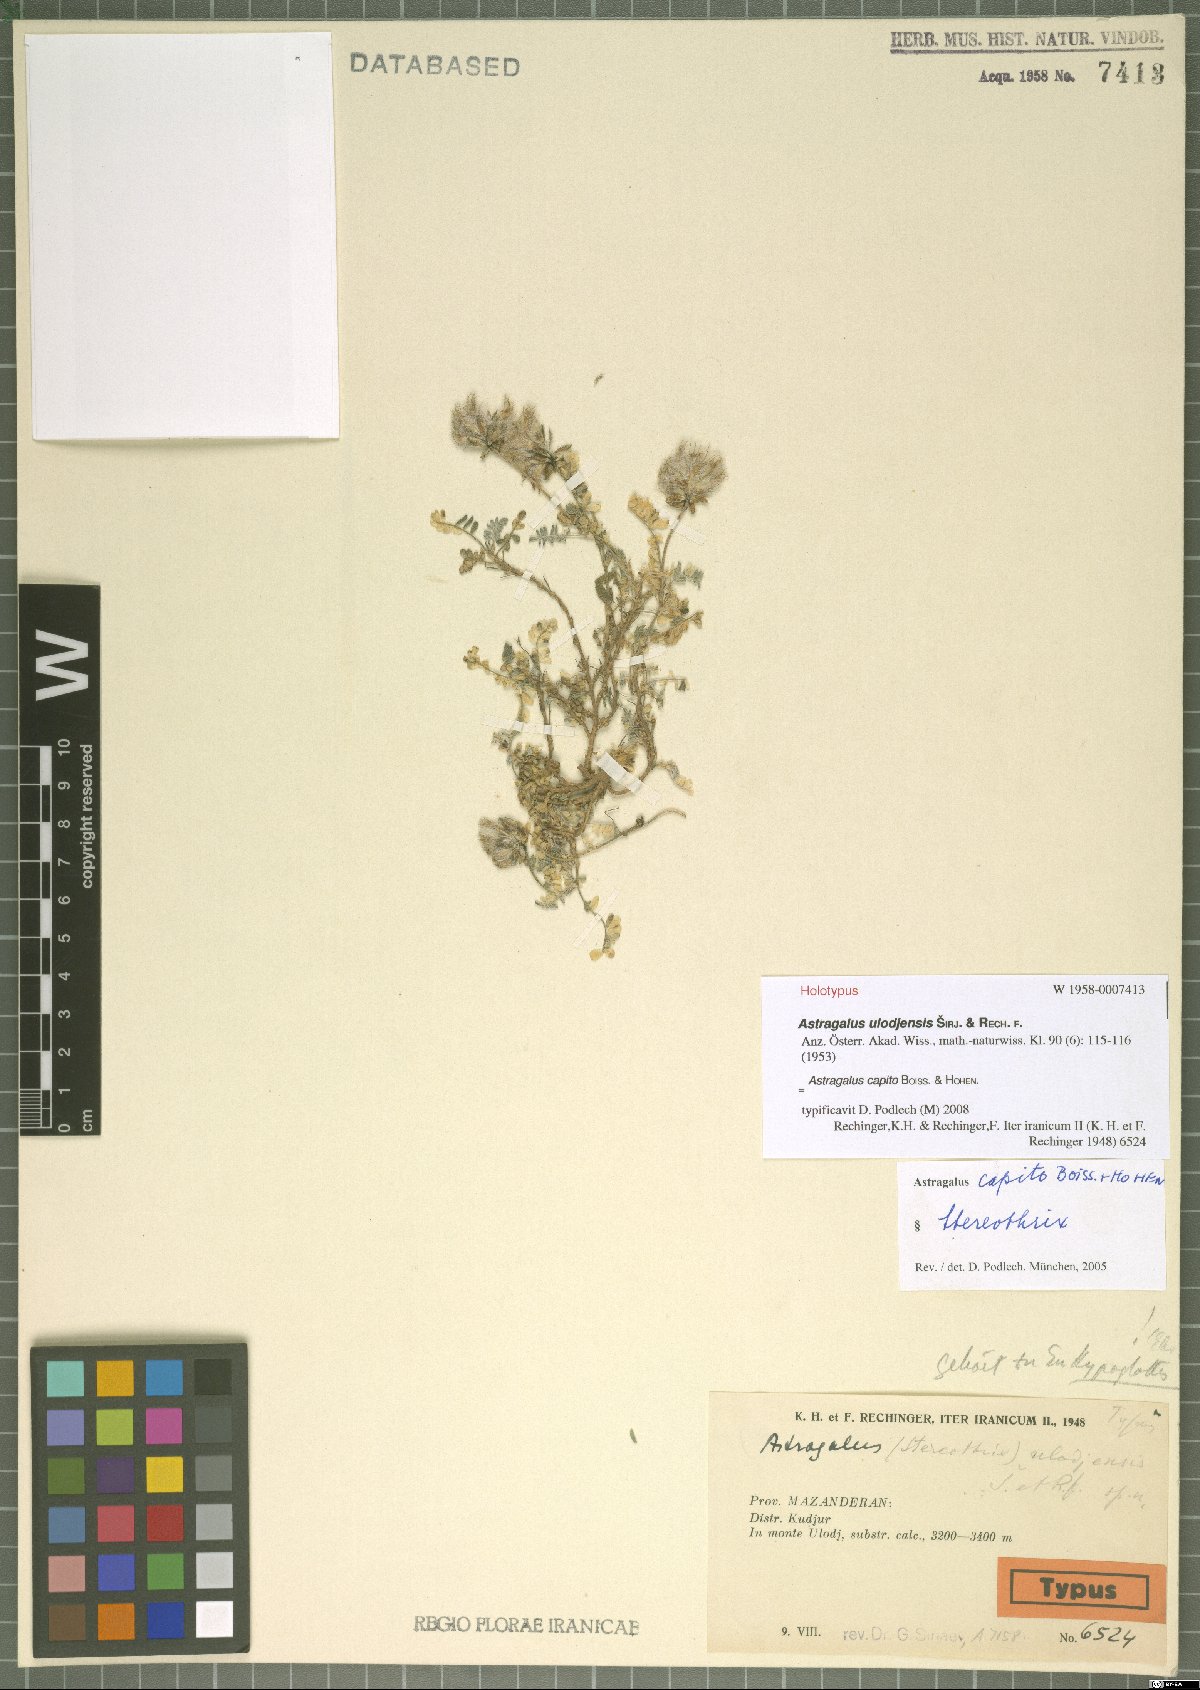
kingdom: Plantae
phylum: Tracheophyta
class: Magnoliopsida
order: Fabales
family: Fabaceae
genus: Astragalus
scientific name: Astragalus capito
